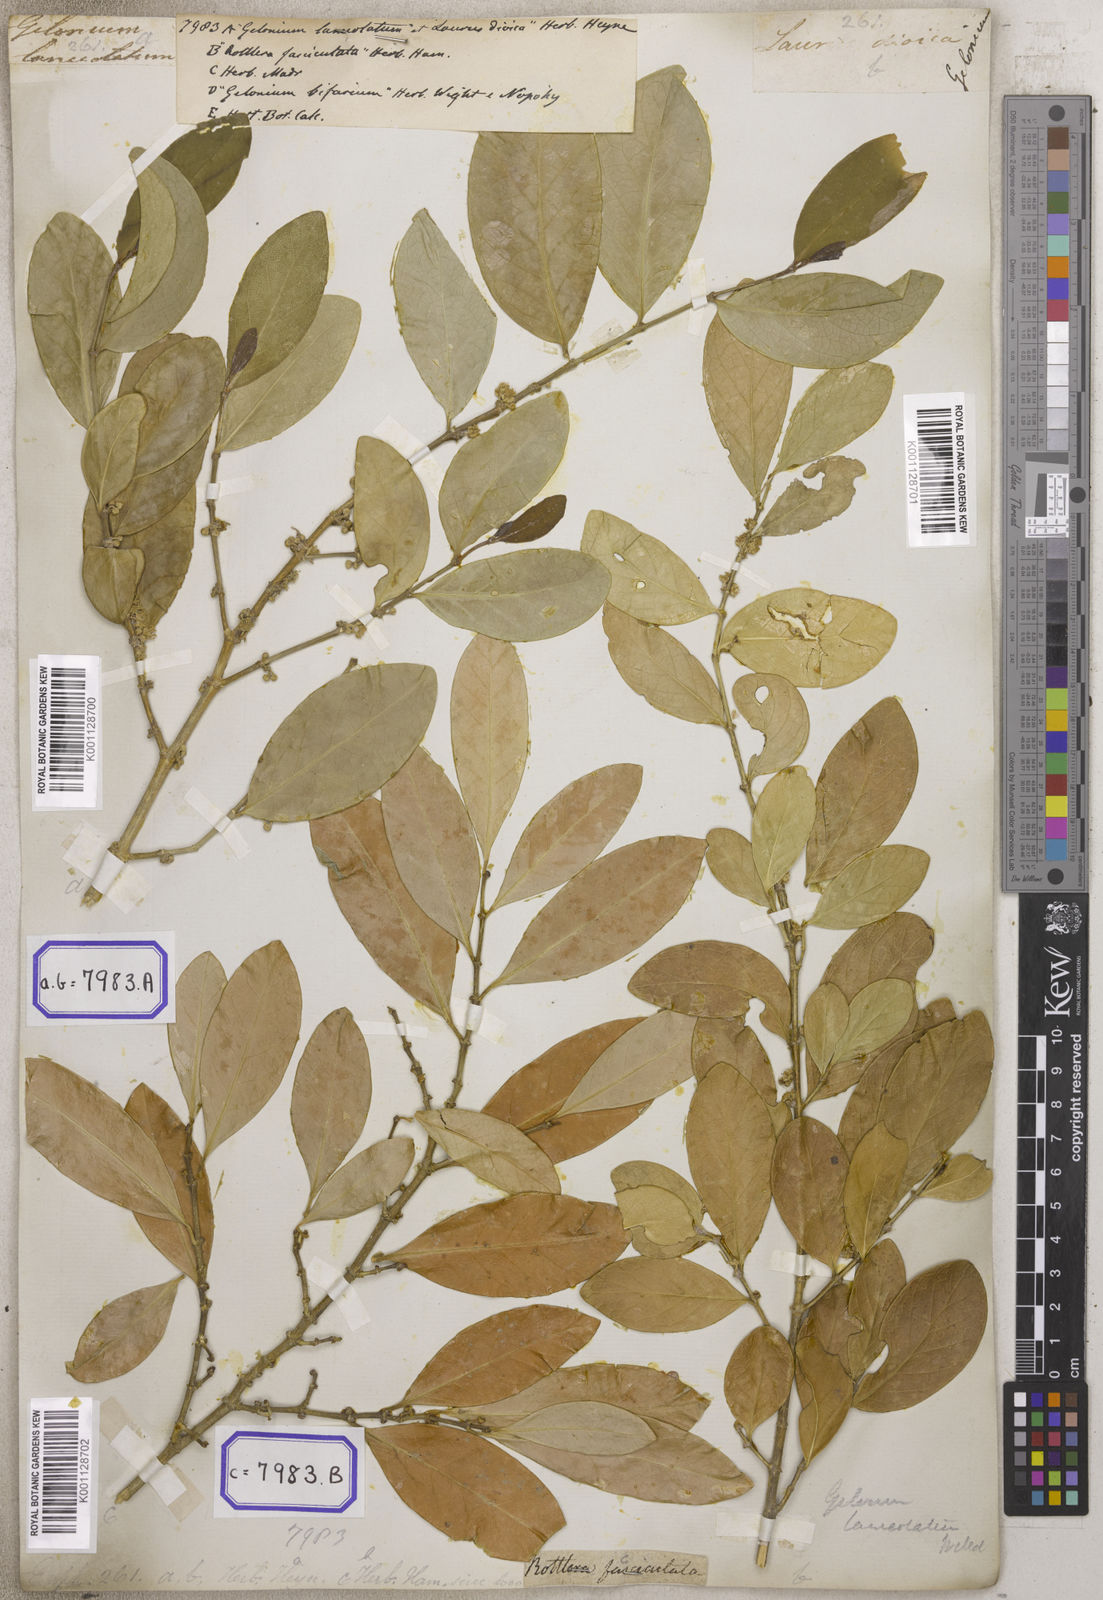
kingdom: Plantae
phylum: Tracheophyta
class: Magnoliopsida
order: Malpighiales
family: Euphorbiaceae
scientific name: Euphorbiaceae
